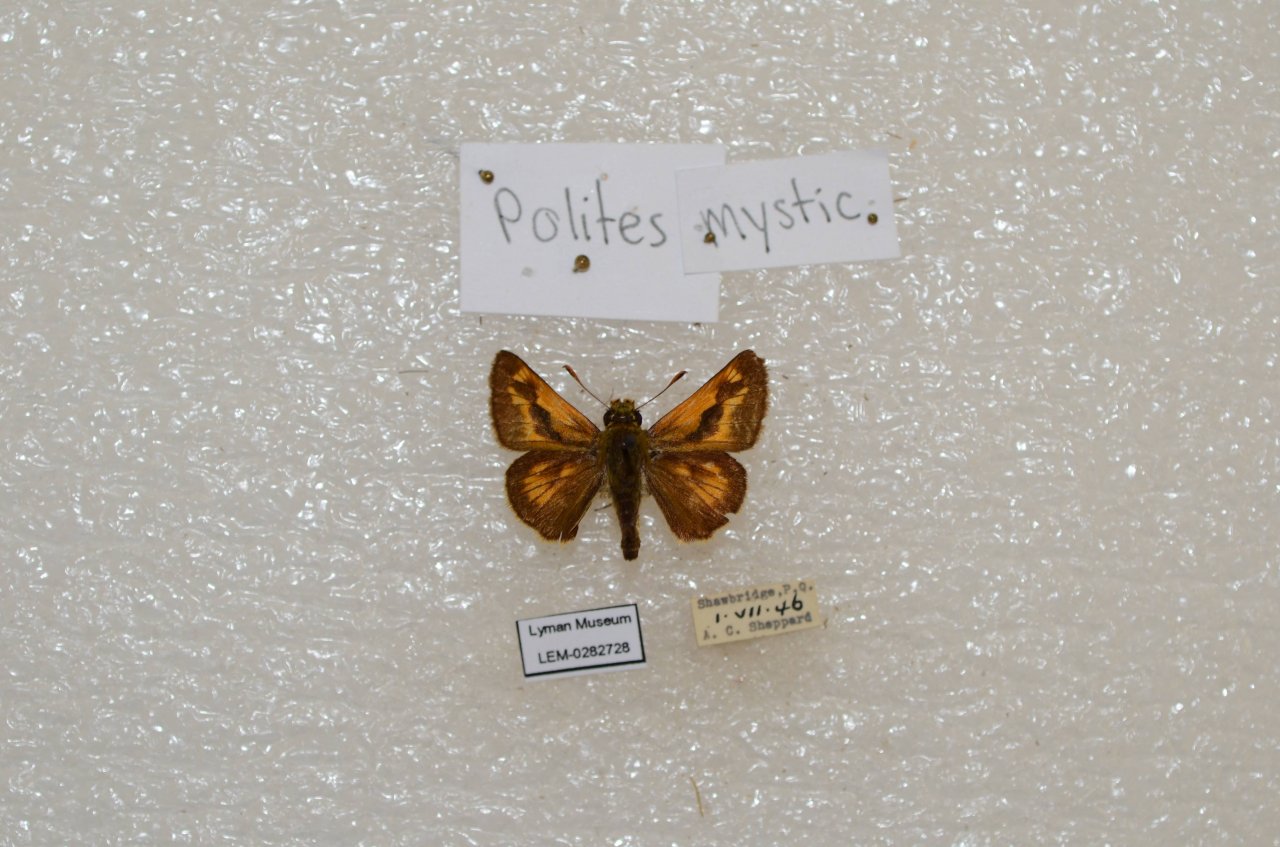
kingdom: Animalia
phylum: Arthropoda
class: Insecta
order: Lepidoptera
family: Hesperiidae
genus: Polites
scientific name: Polites
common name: Long Dash Skipper
